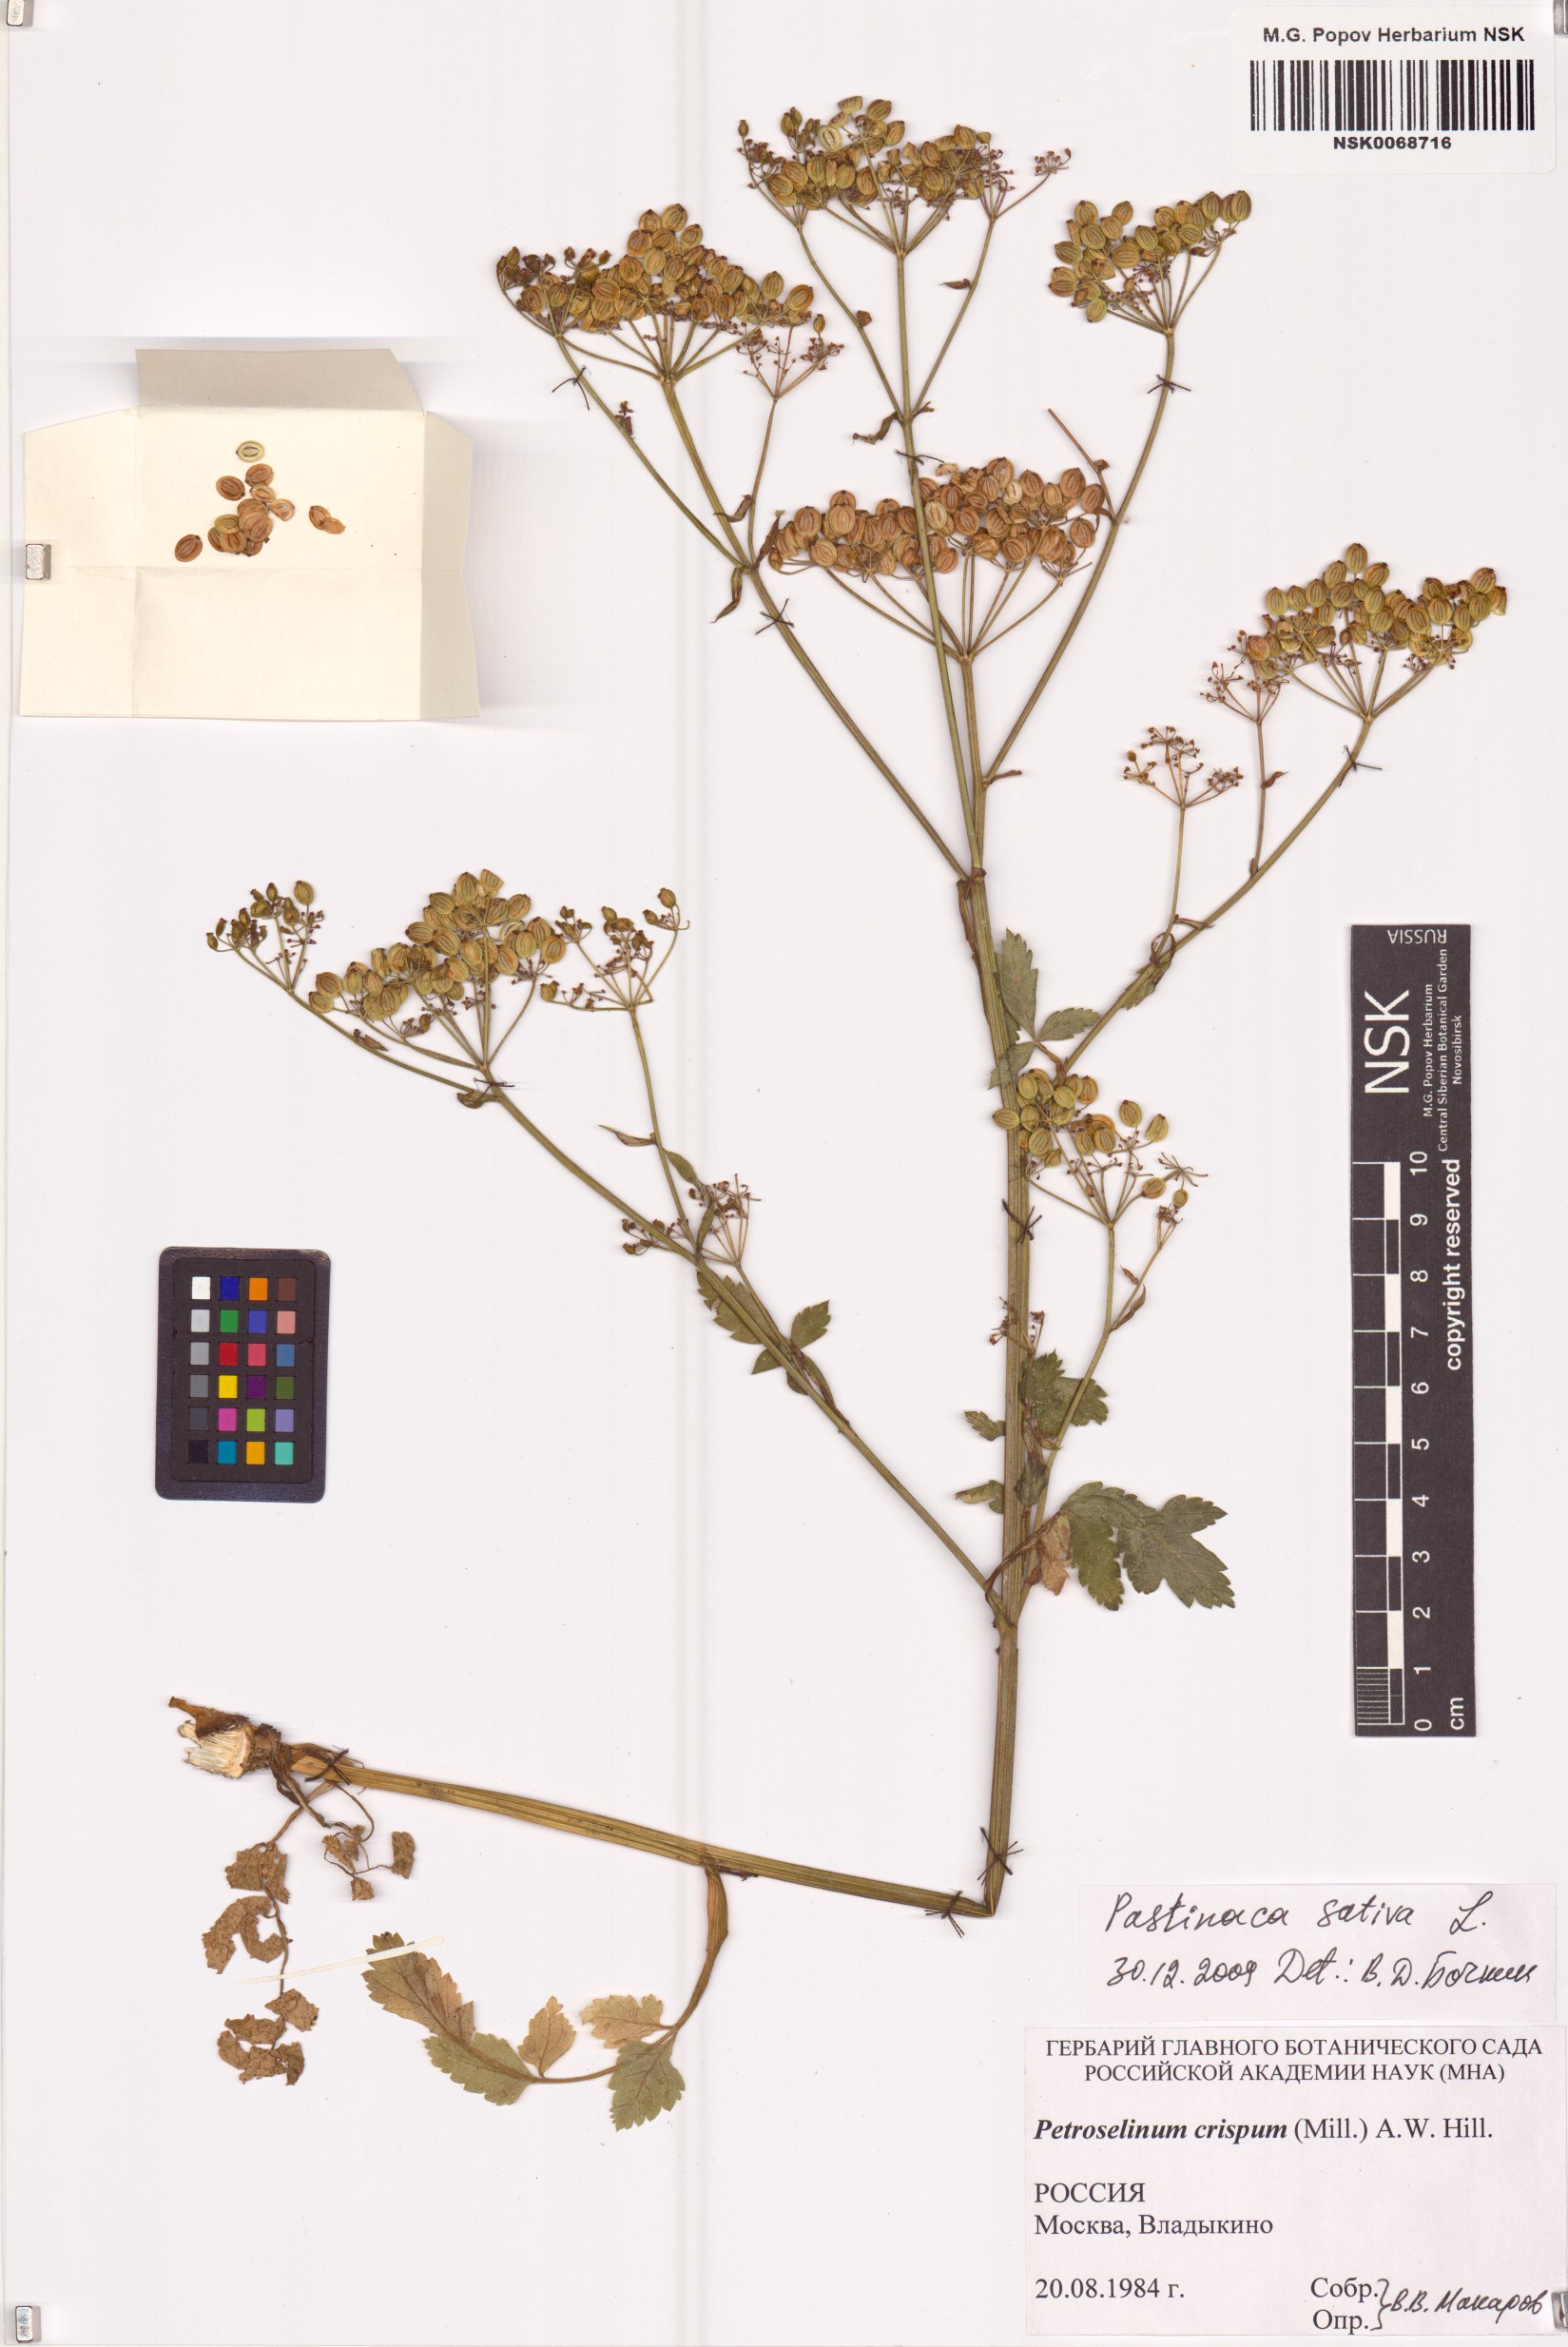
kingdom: Plantae
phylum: Tracheophyta
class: Magnoliopsida
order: Apiales
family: Apiaceae
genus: Pastinaca
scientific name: Pastinaca sativa
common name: Wild parsnip
